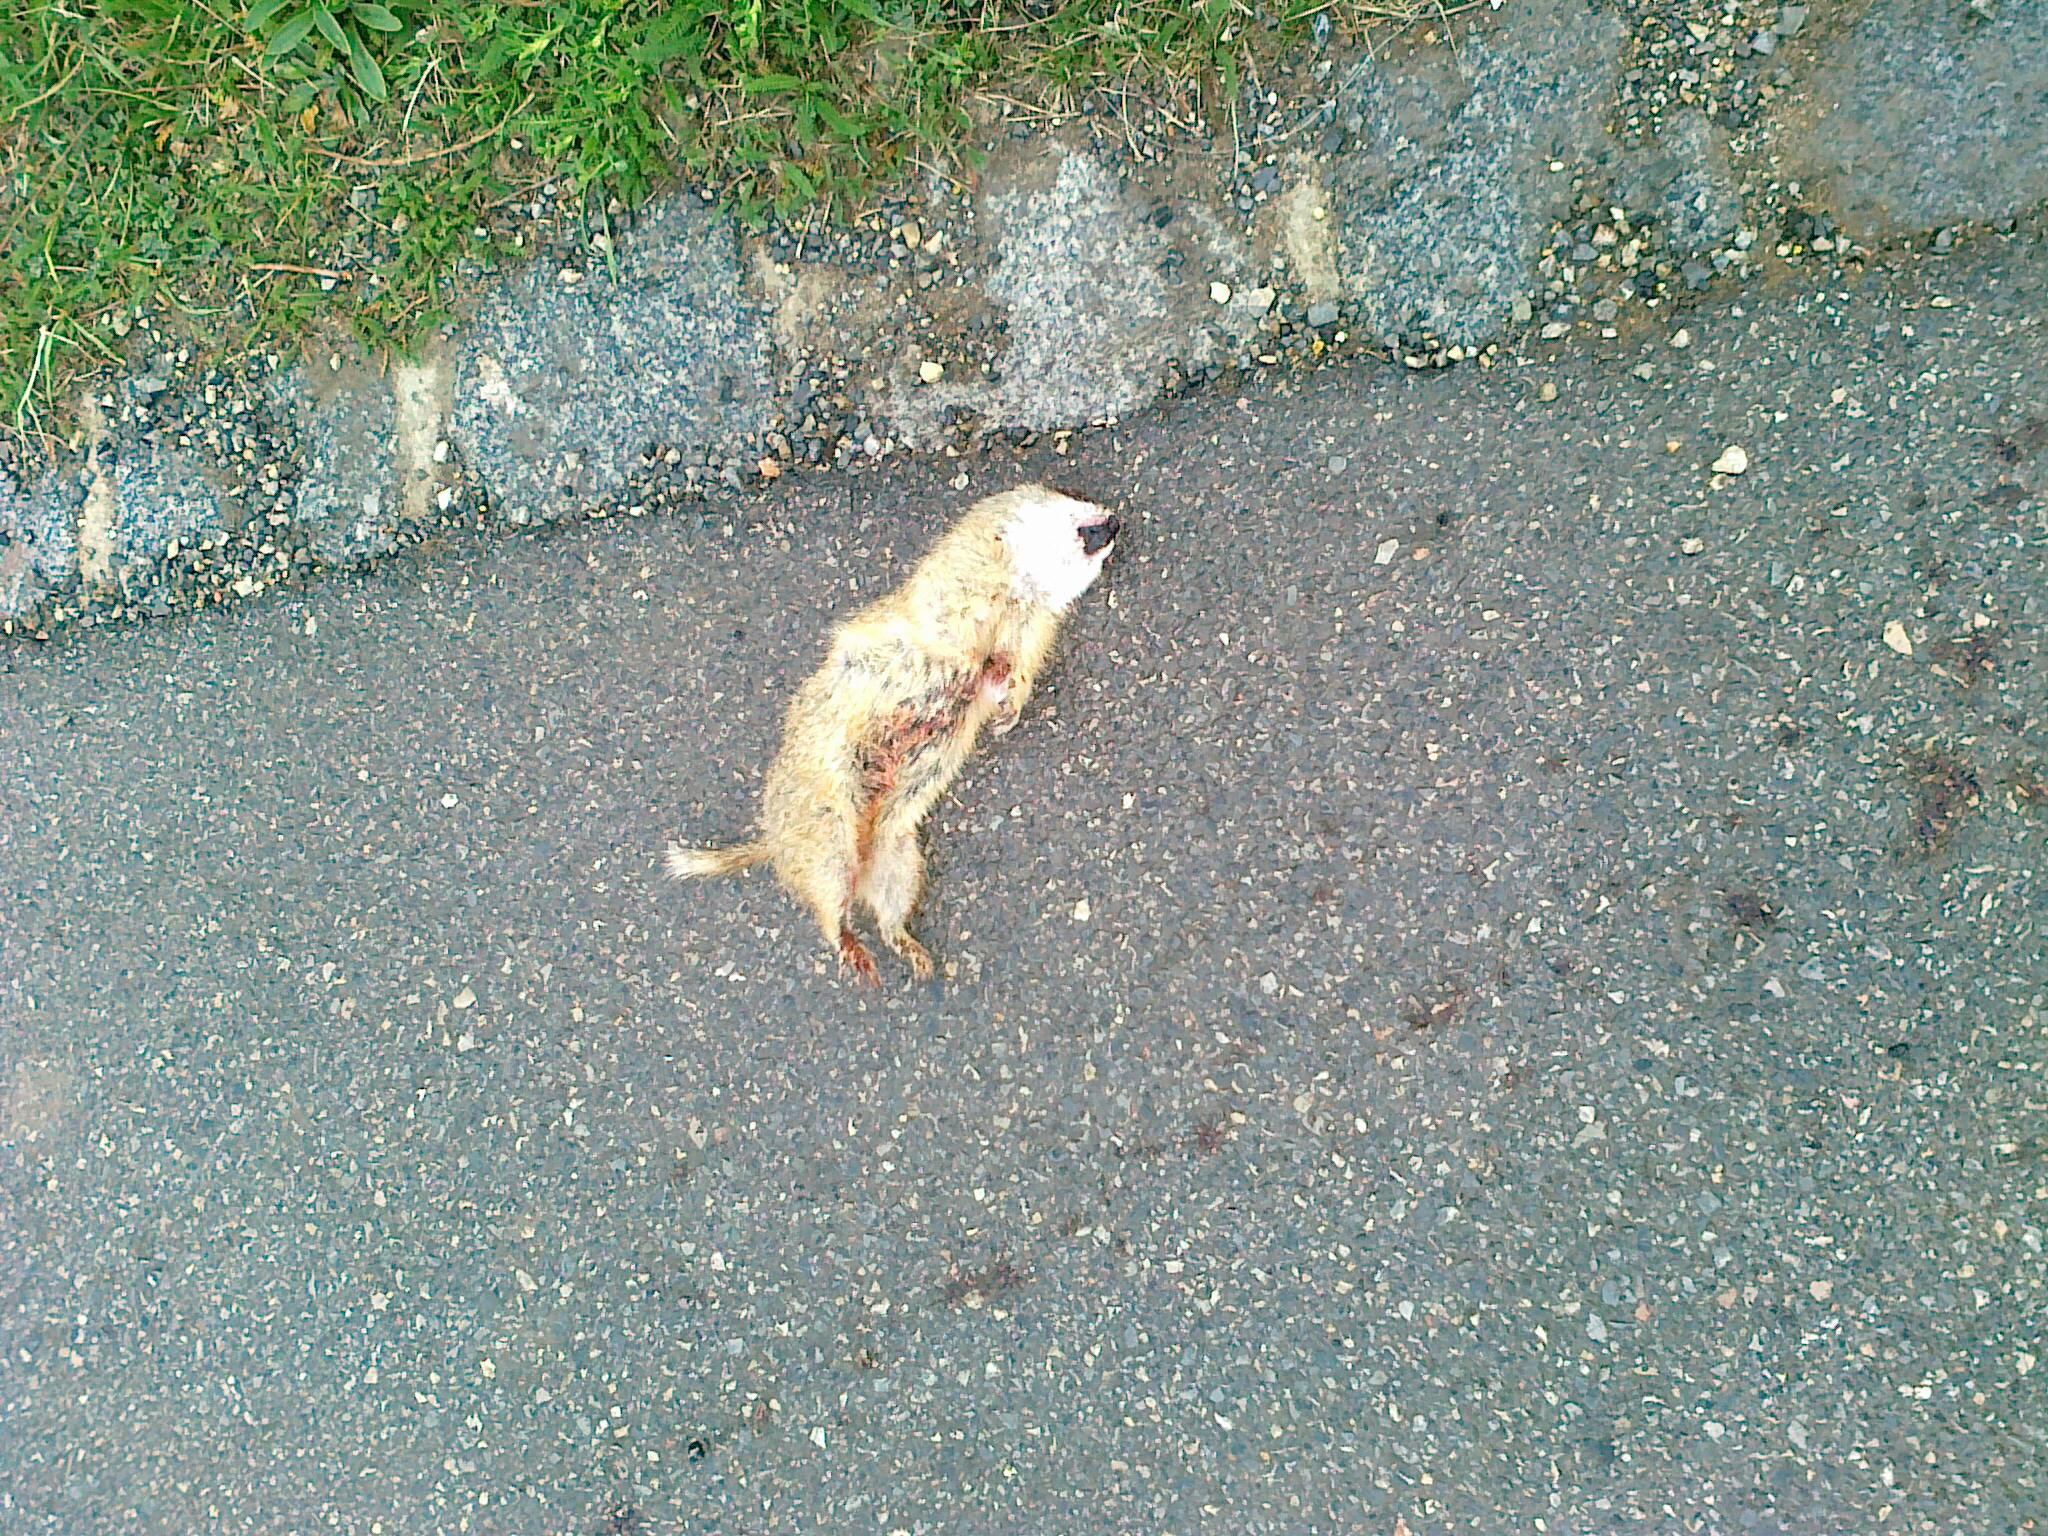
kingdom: Animalia
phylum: Chordata
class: Mammalia
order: Rodentia
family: Sciuridae
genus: Spermophilus
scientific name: Spermophilus citellus
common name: European ground squirrel
